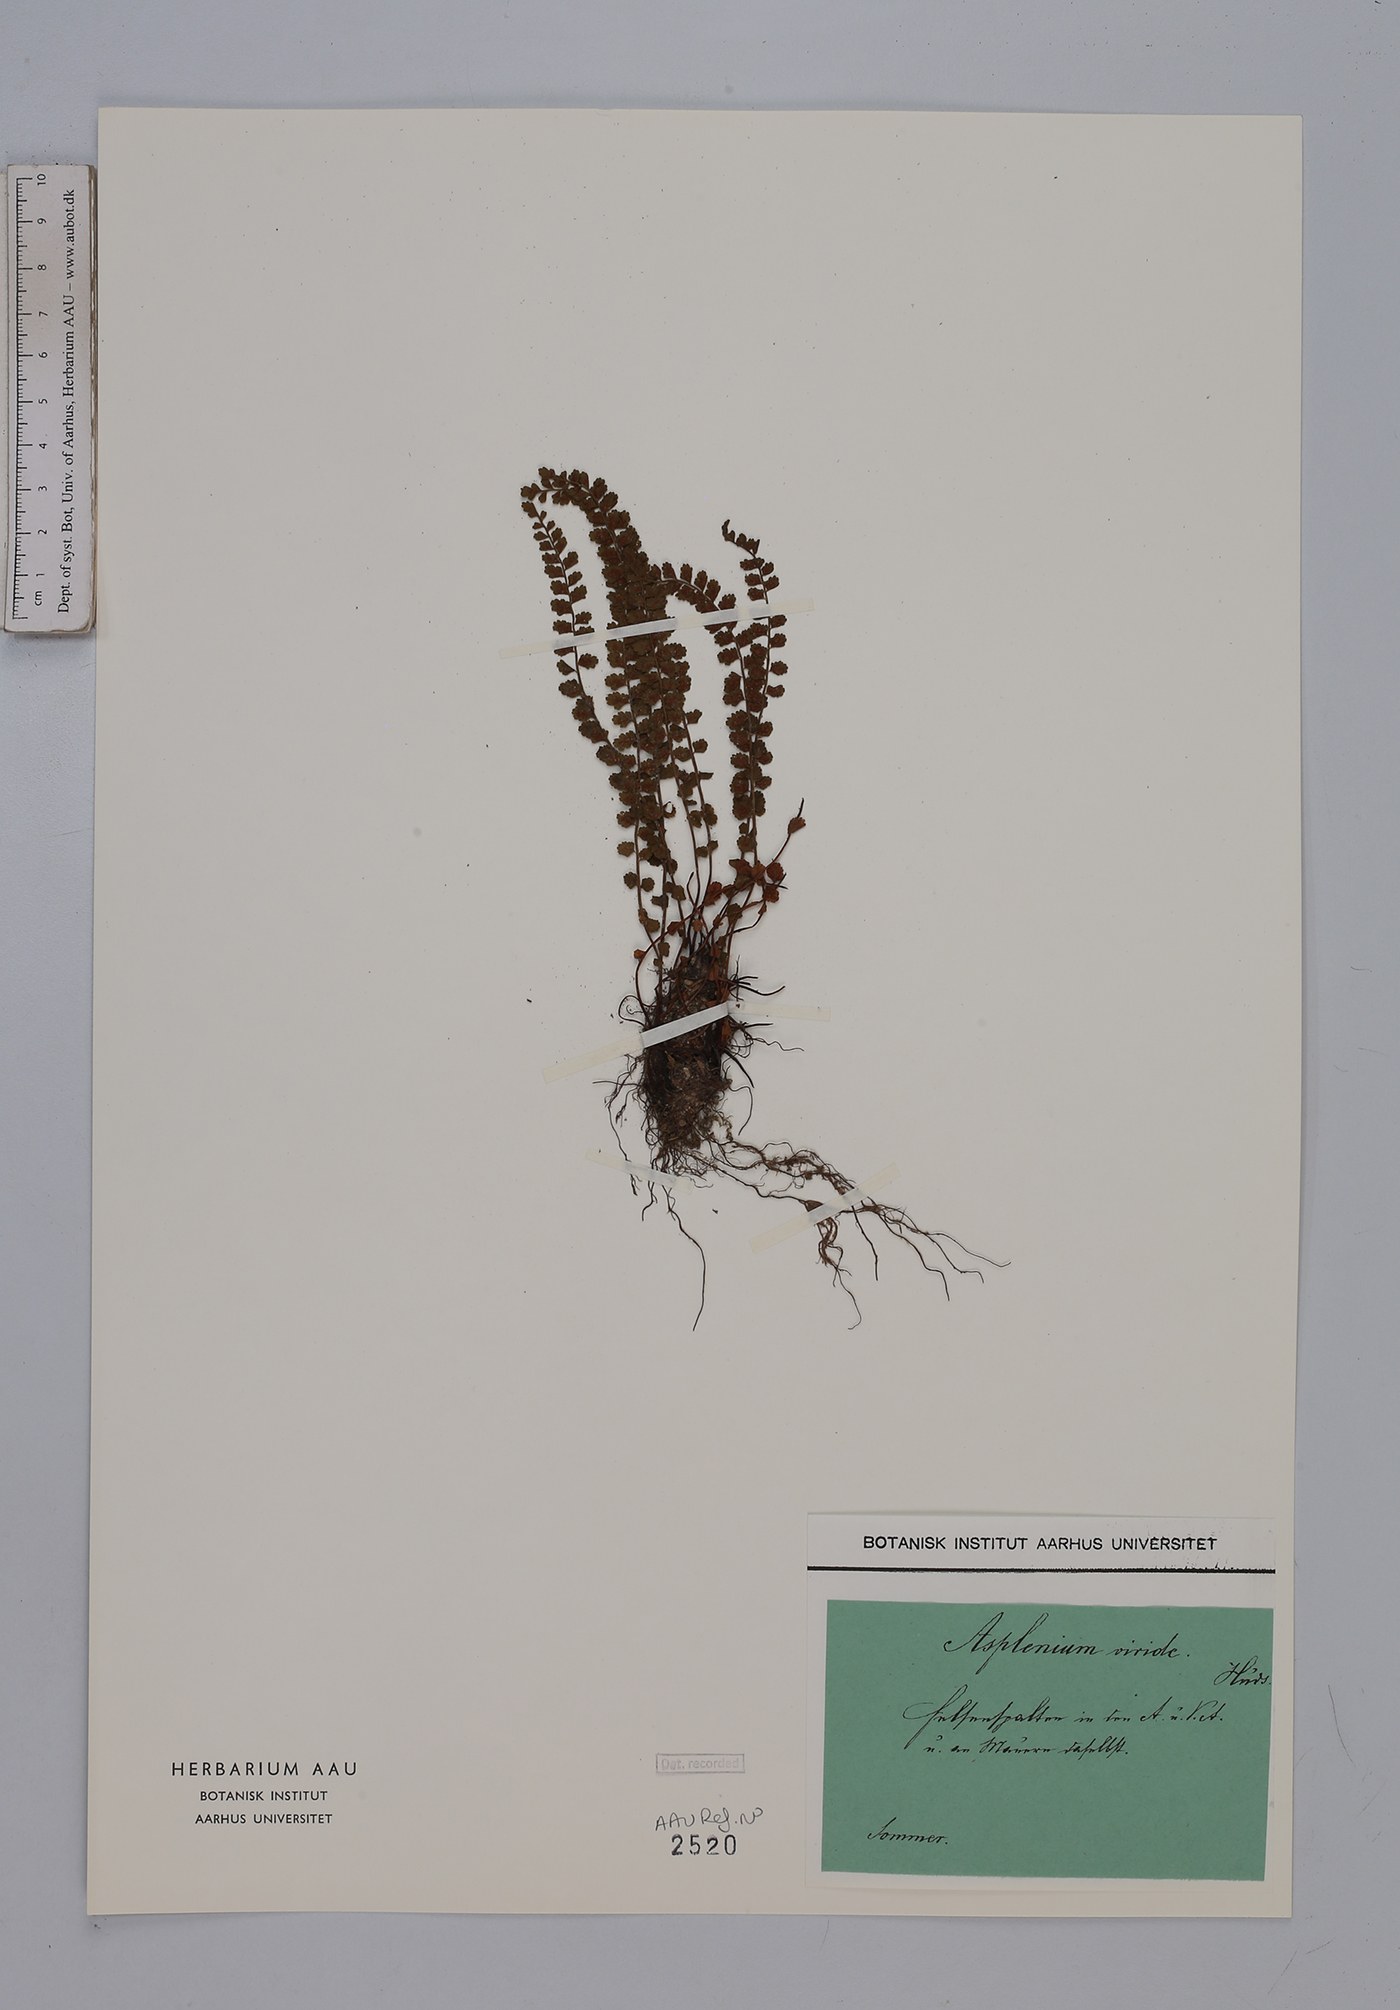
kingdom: Plantae
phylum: Tracheophyta
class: Polypodiopsida
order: Polypodiales
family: Aspleniaceae
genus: Asplenium
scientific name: Asplenium viride
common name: Green spleenwort
